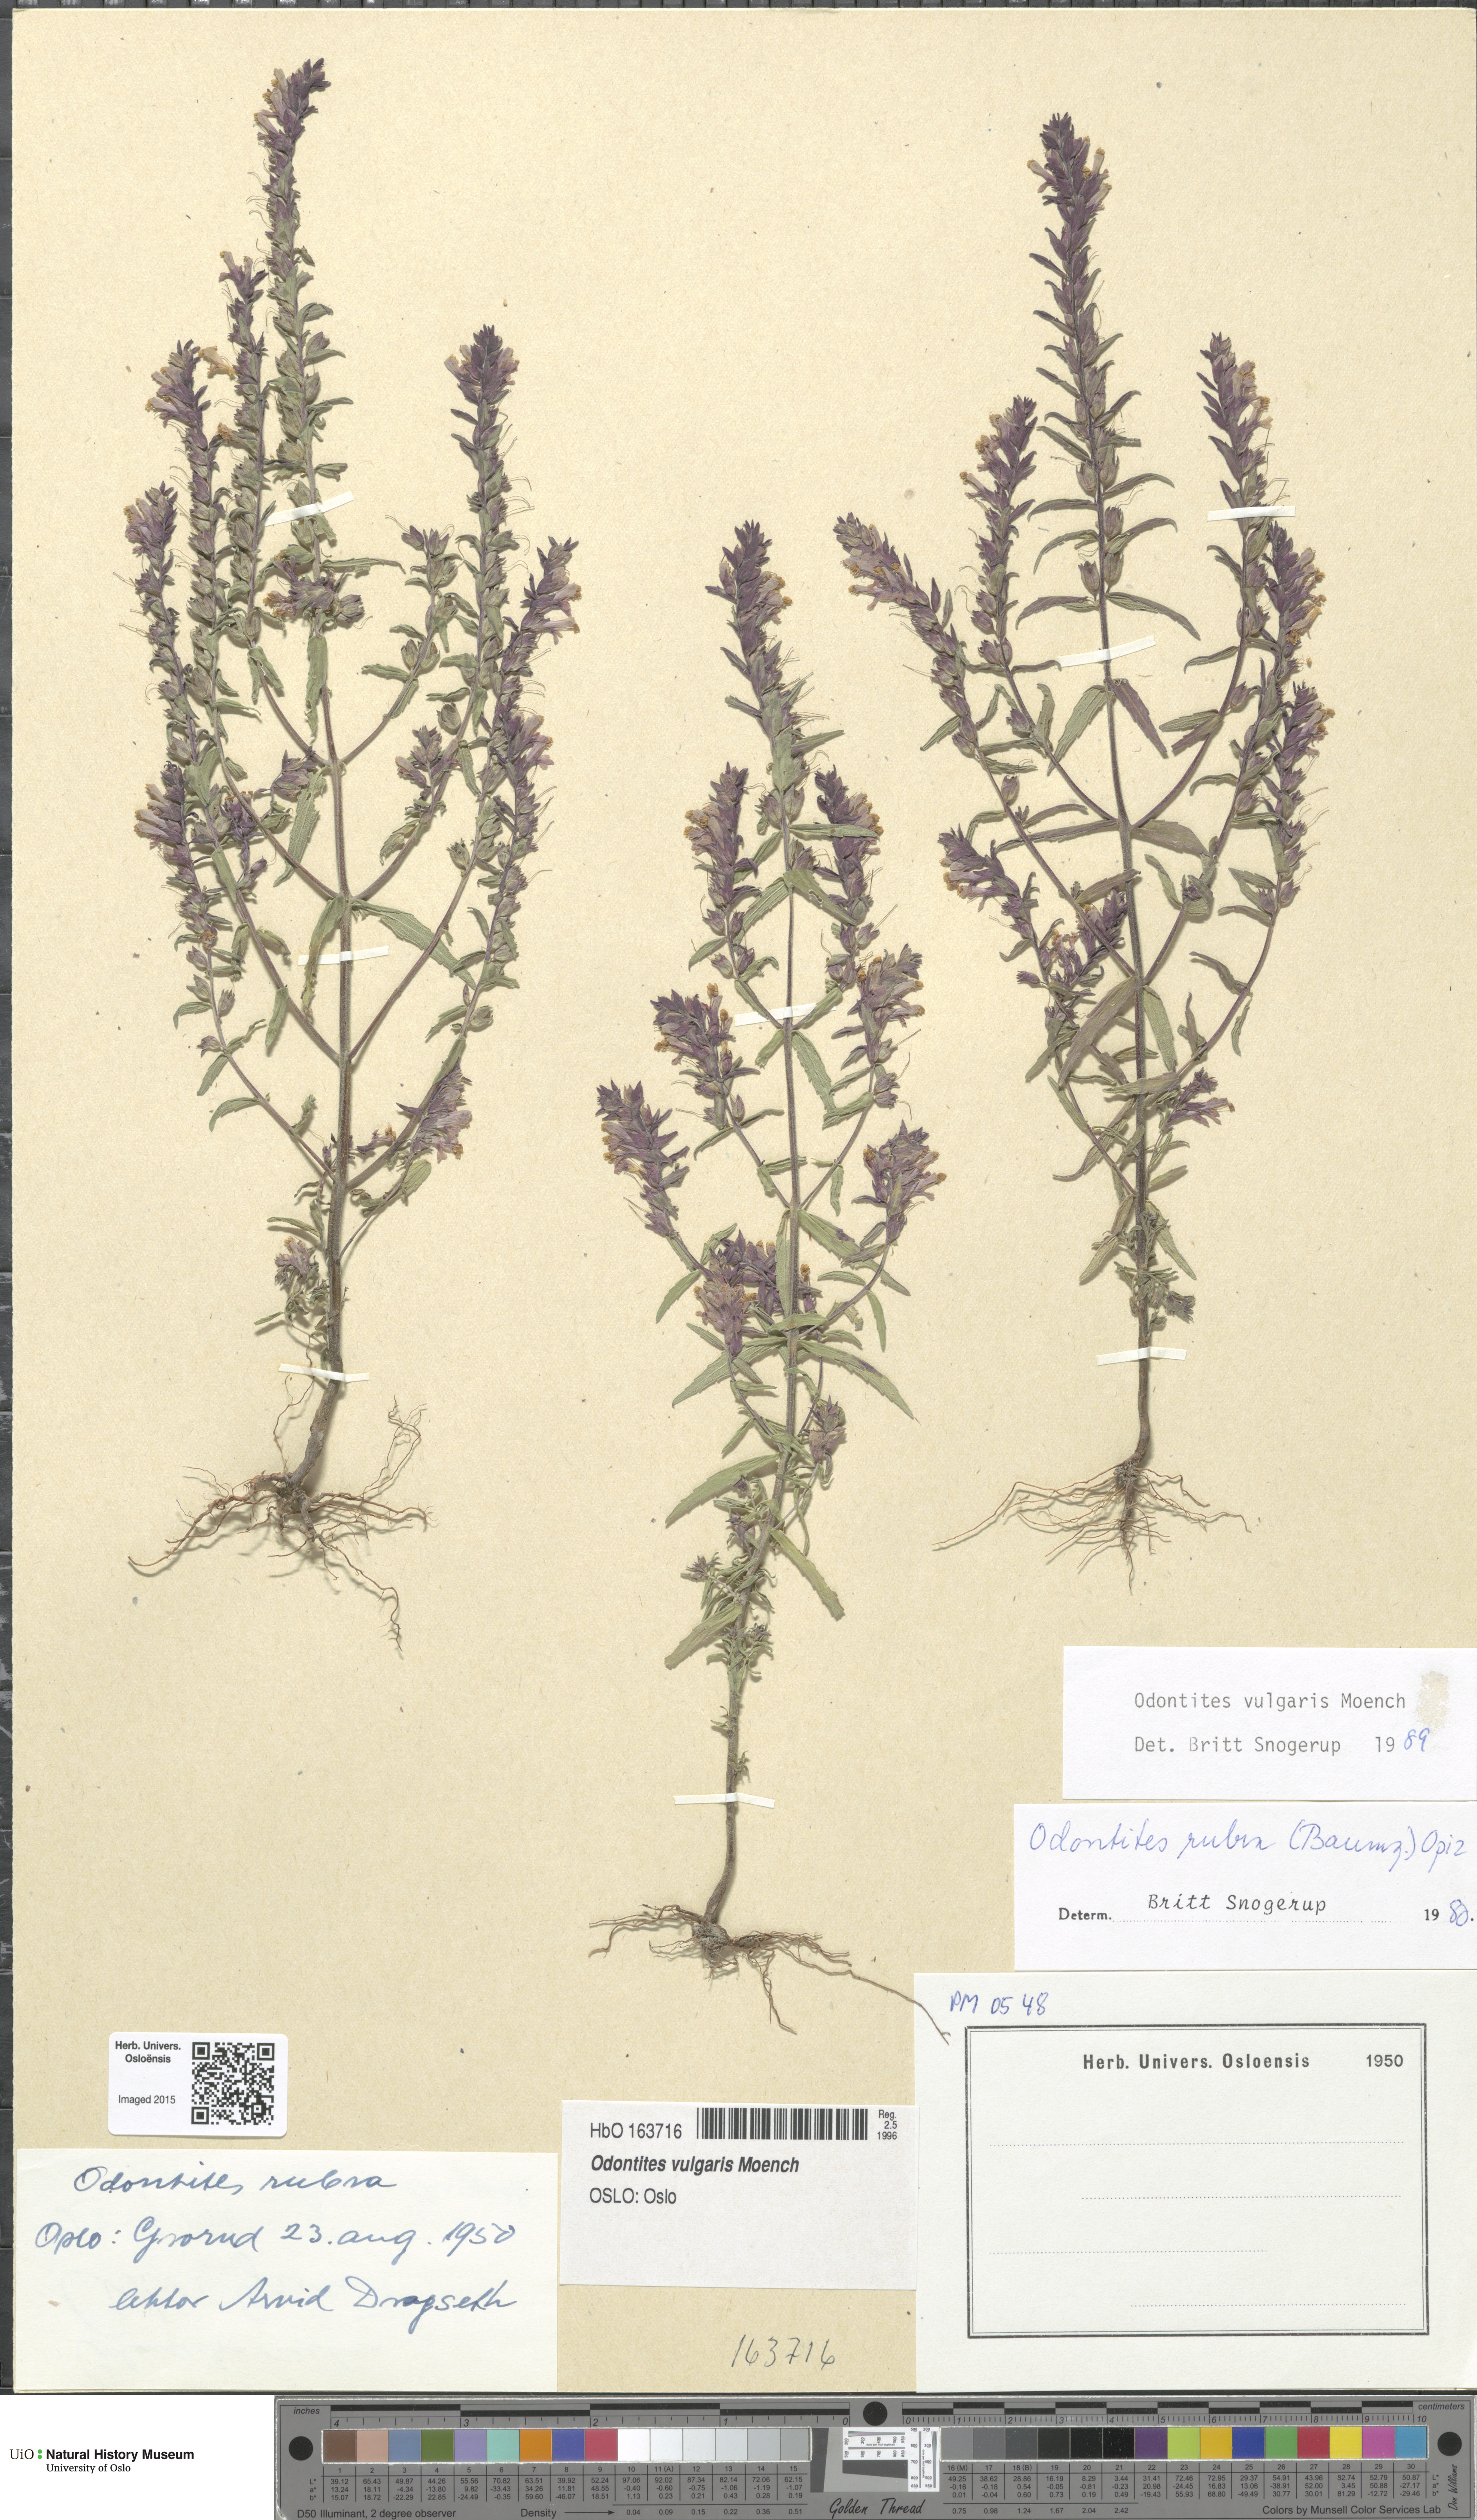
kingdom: Plantae
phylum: Tracheophyta
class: Magnoliopsida
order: Lamiales
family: Orobanchaceae
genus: Odontites
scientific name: Odontites vulgaris
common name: Broomrape
